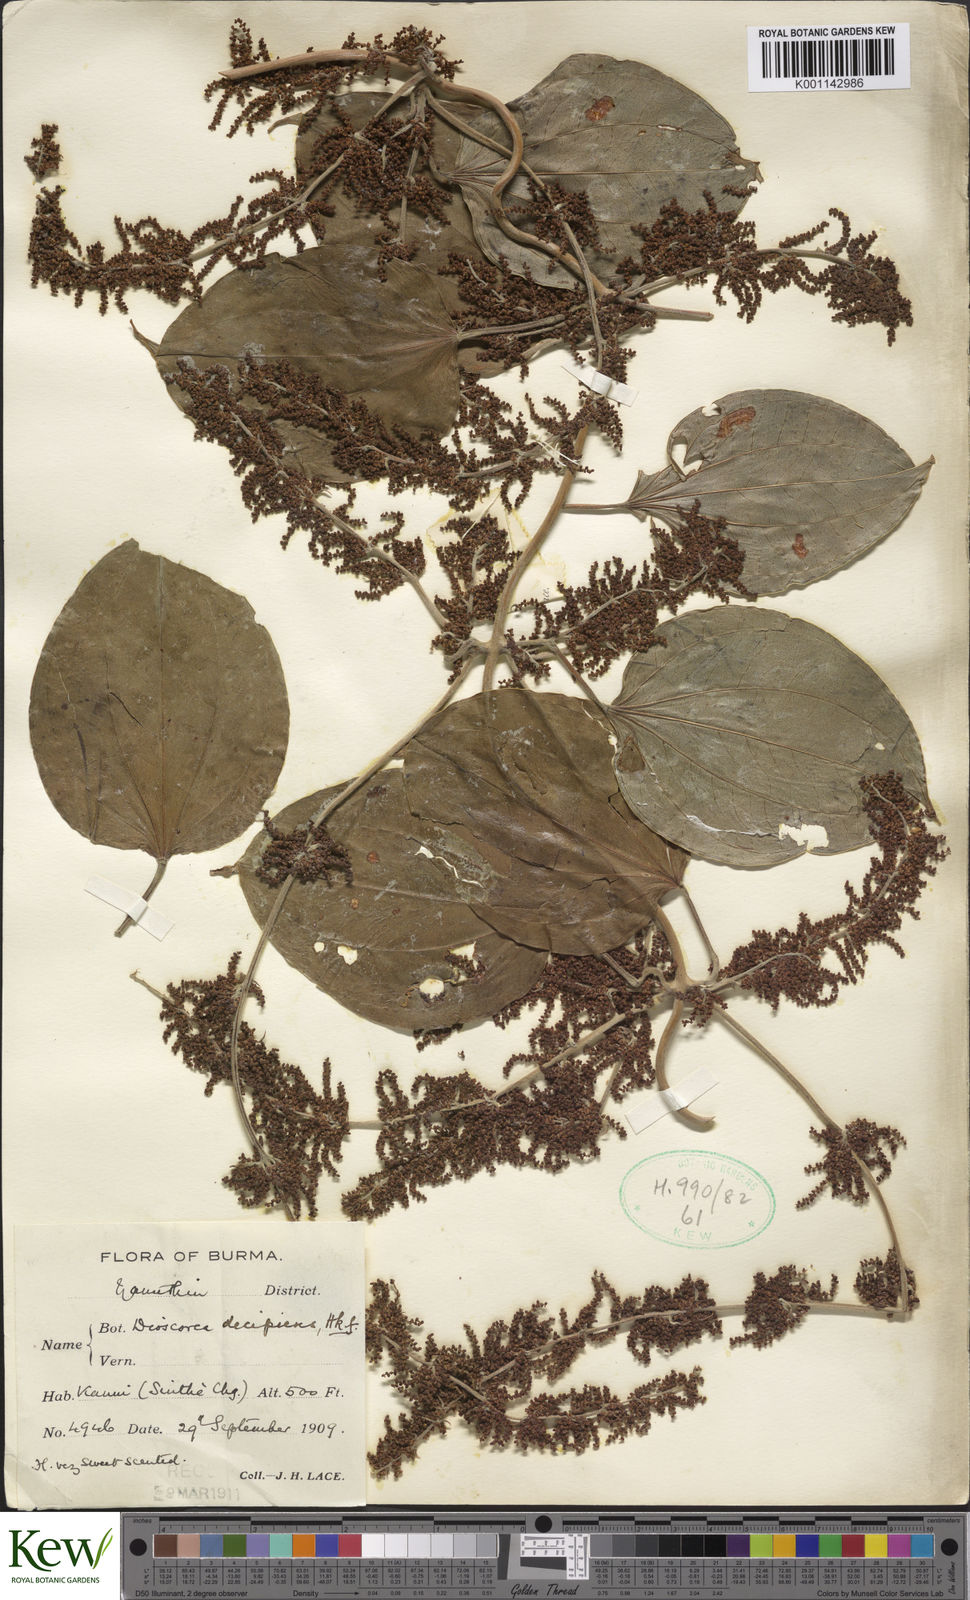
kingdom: Plantae
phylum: Tracheophyta
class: Liliopsida
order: Dioscoreales
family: Dioscoreaceae
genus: Dioscorea
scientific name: Dioscorea decipiens
